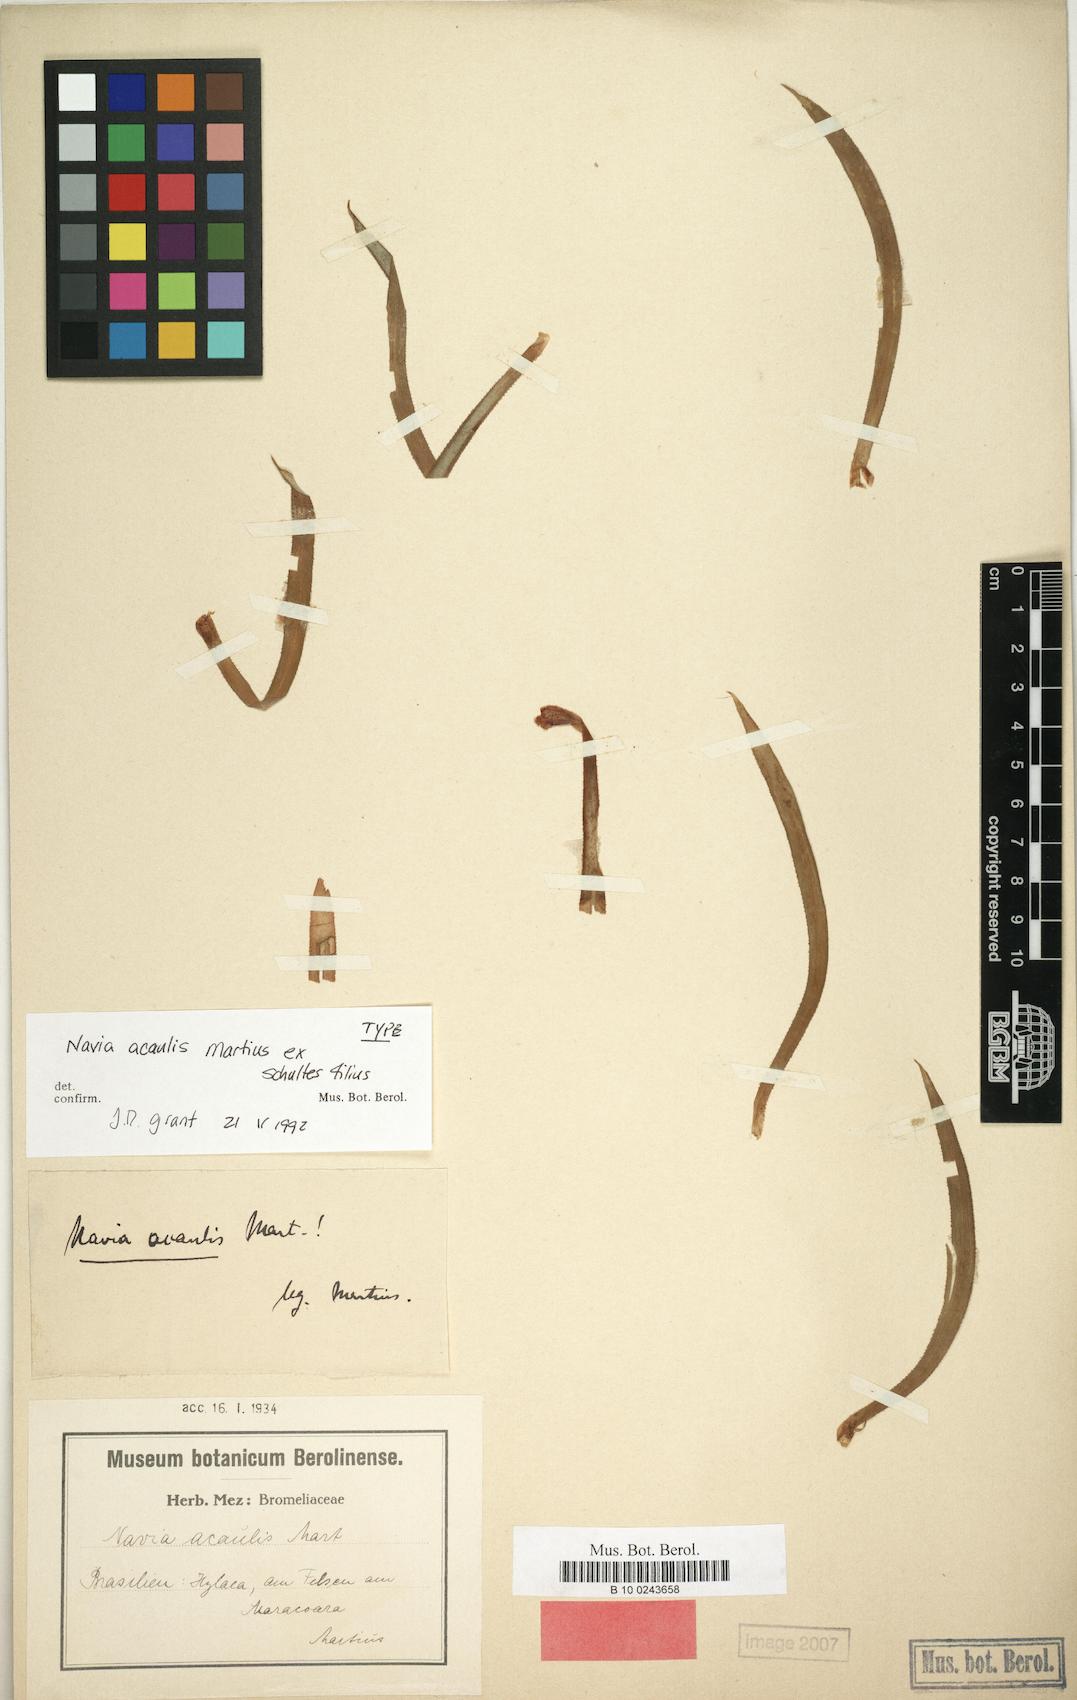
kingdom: Plantae
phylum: Tracheophyta
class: Liliopsida
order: Poales
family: Bromeliaceae
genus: Navia
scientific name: Navia acaulis
